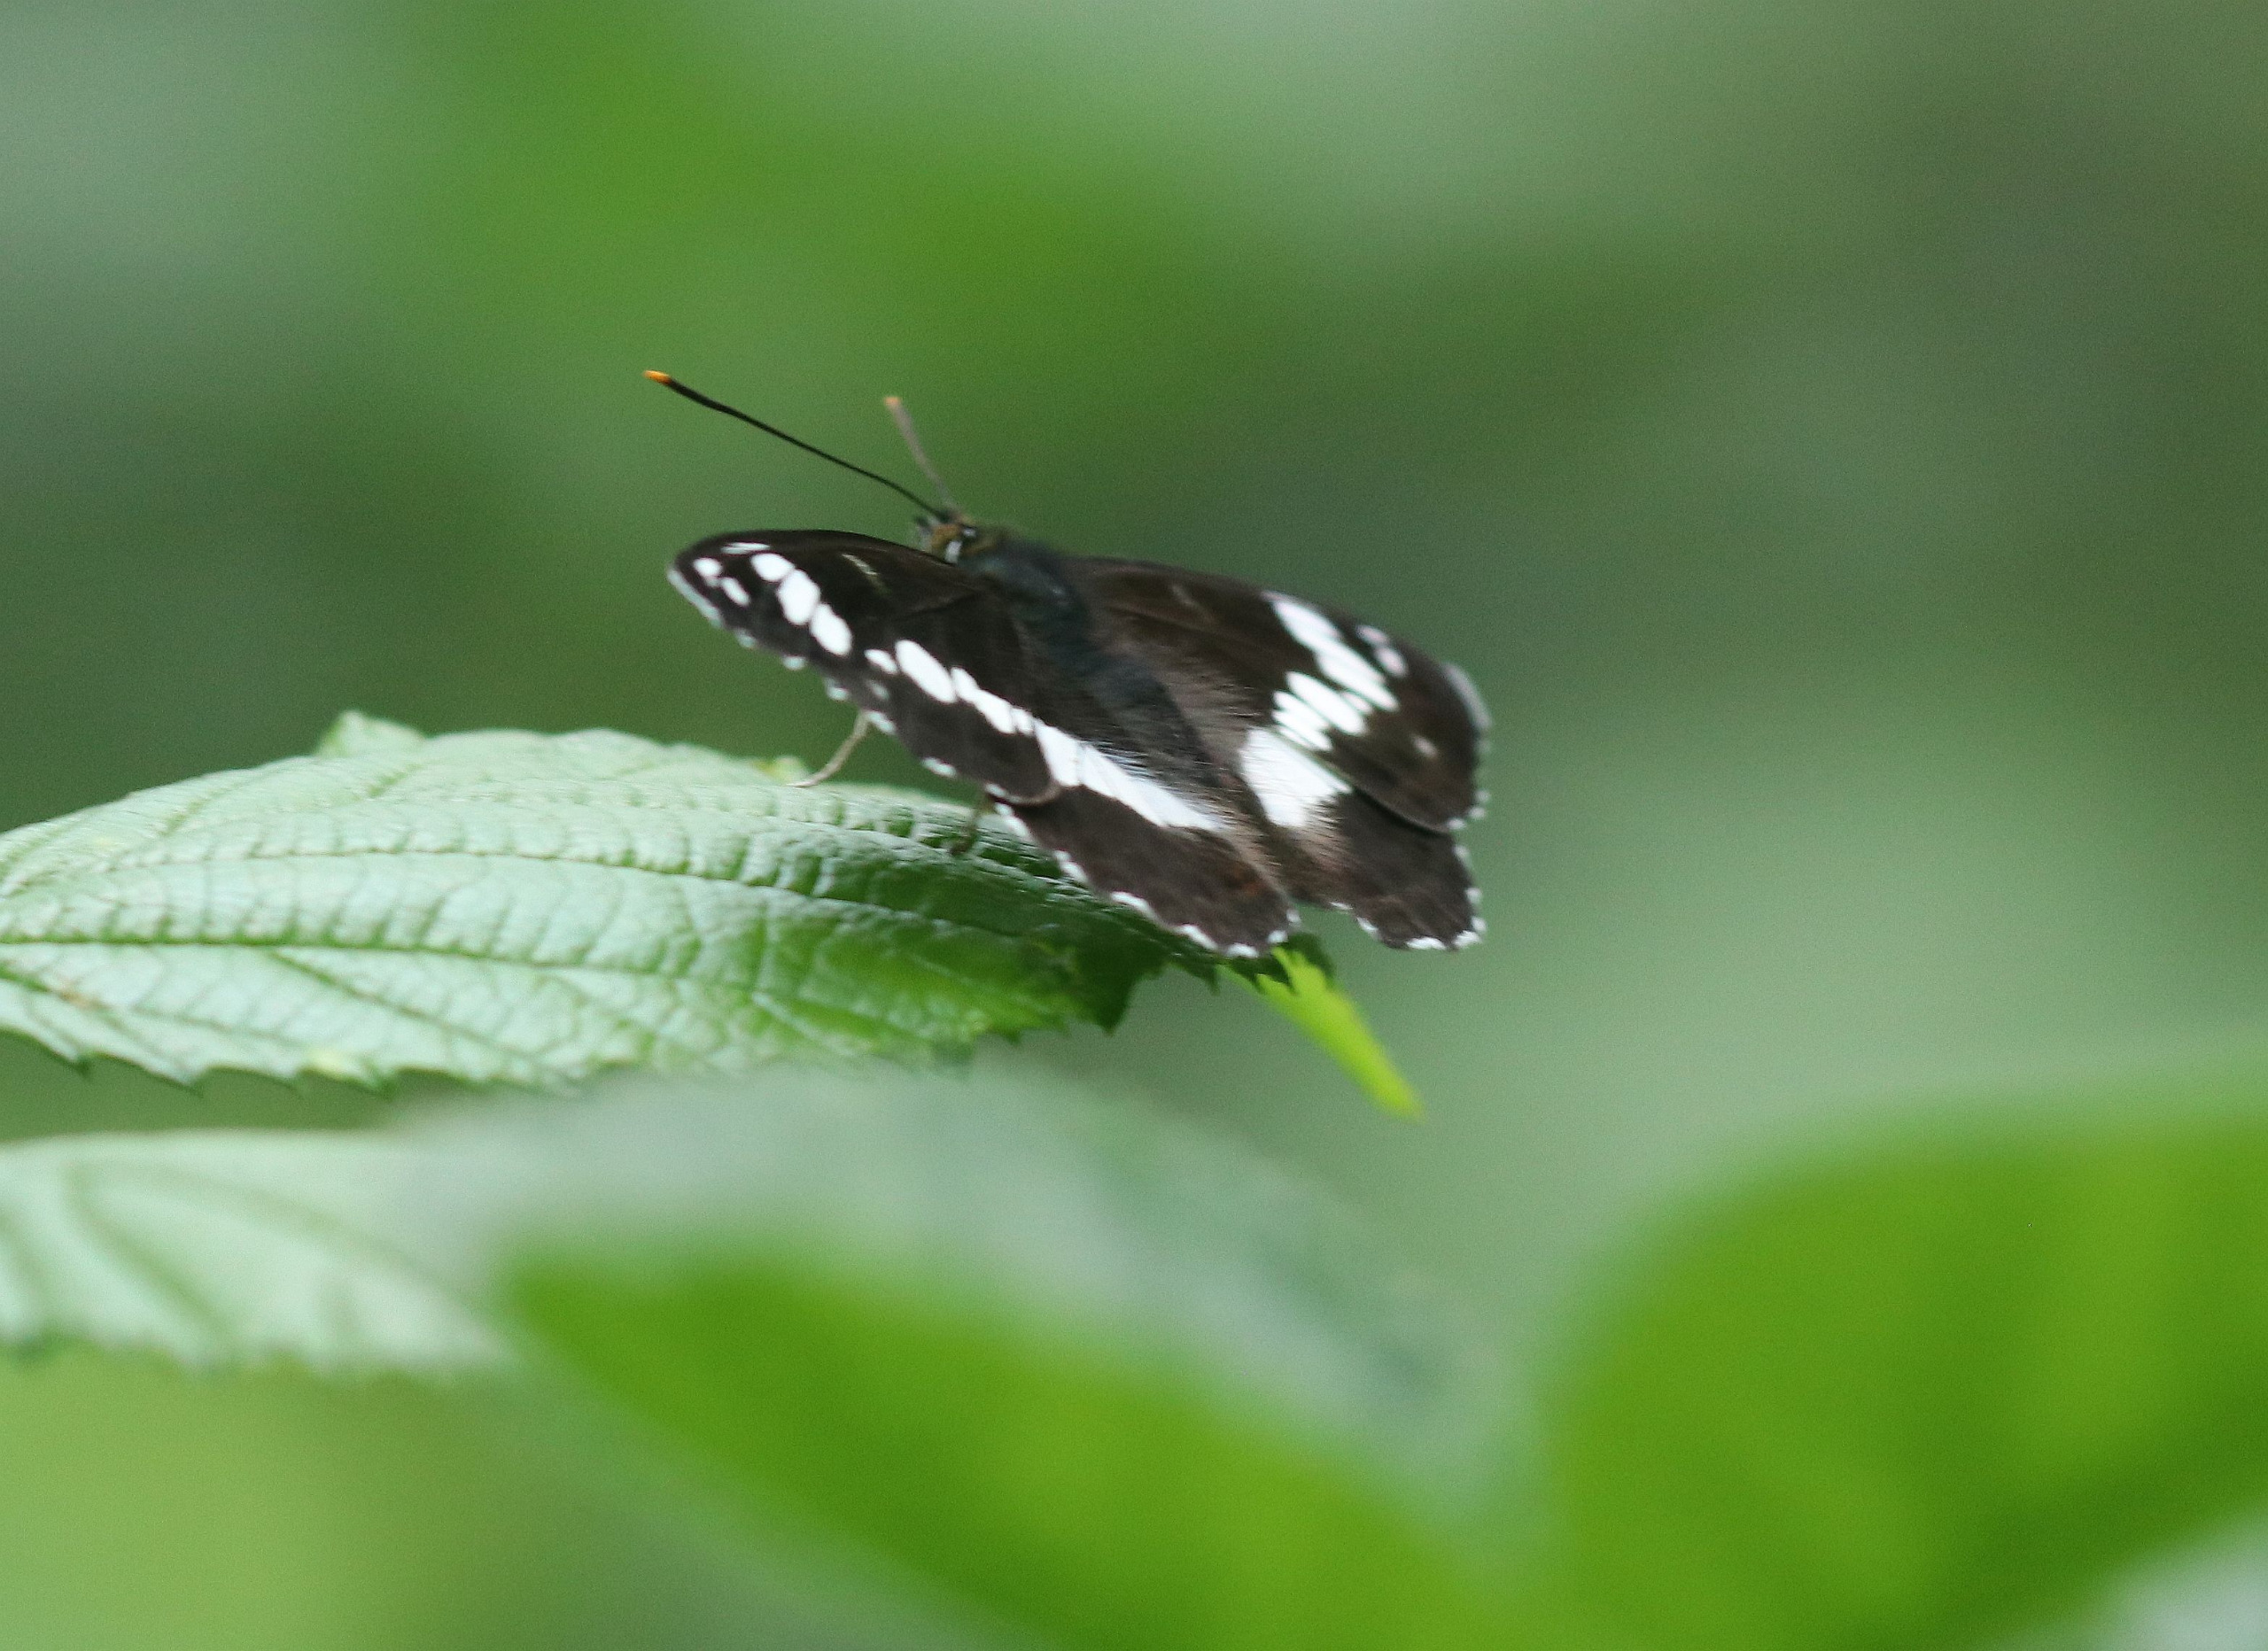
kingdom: Animalia
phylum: Arthropoda
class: Insecta
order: Lepidoptera
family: Nymphalidae
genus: Ladoga
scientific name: Ladoga camilla
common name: Hvid admiral
